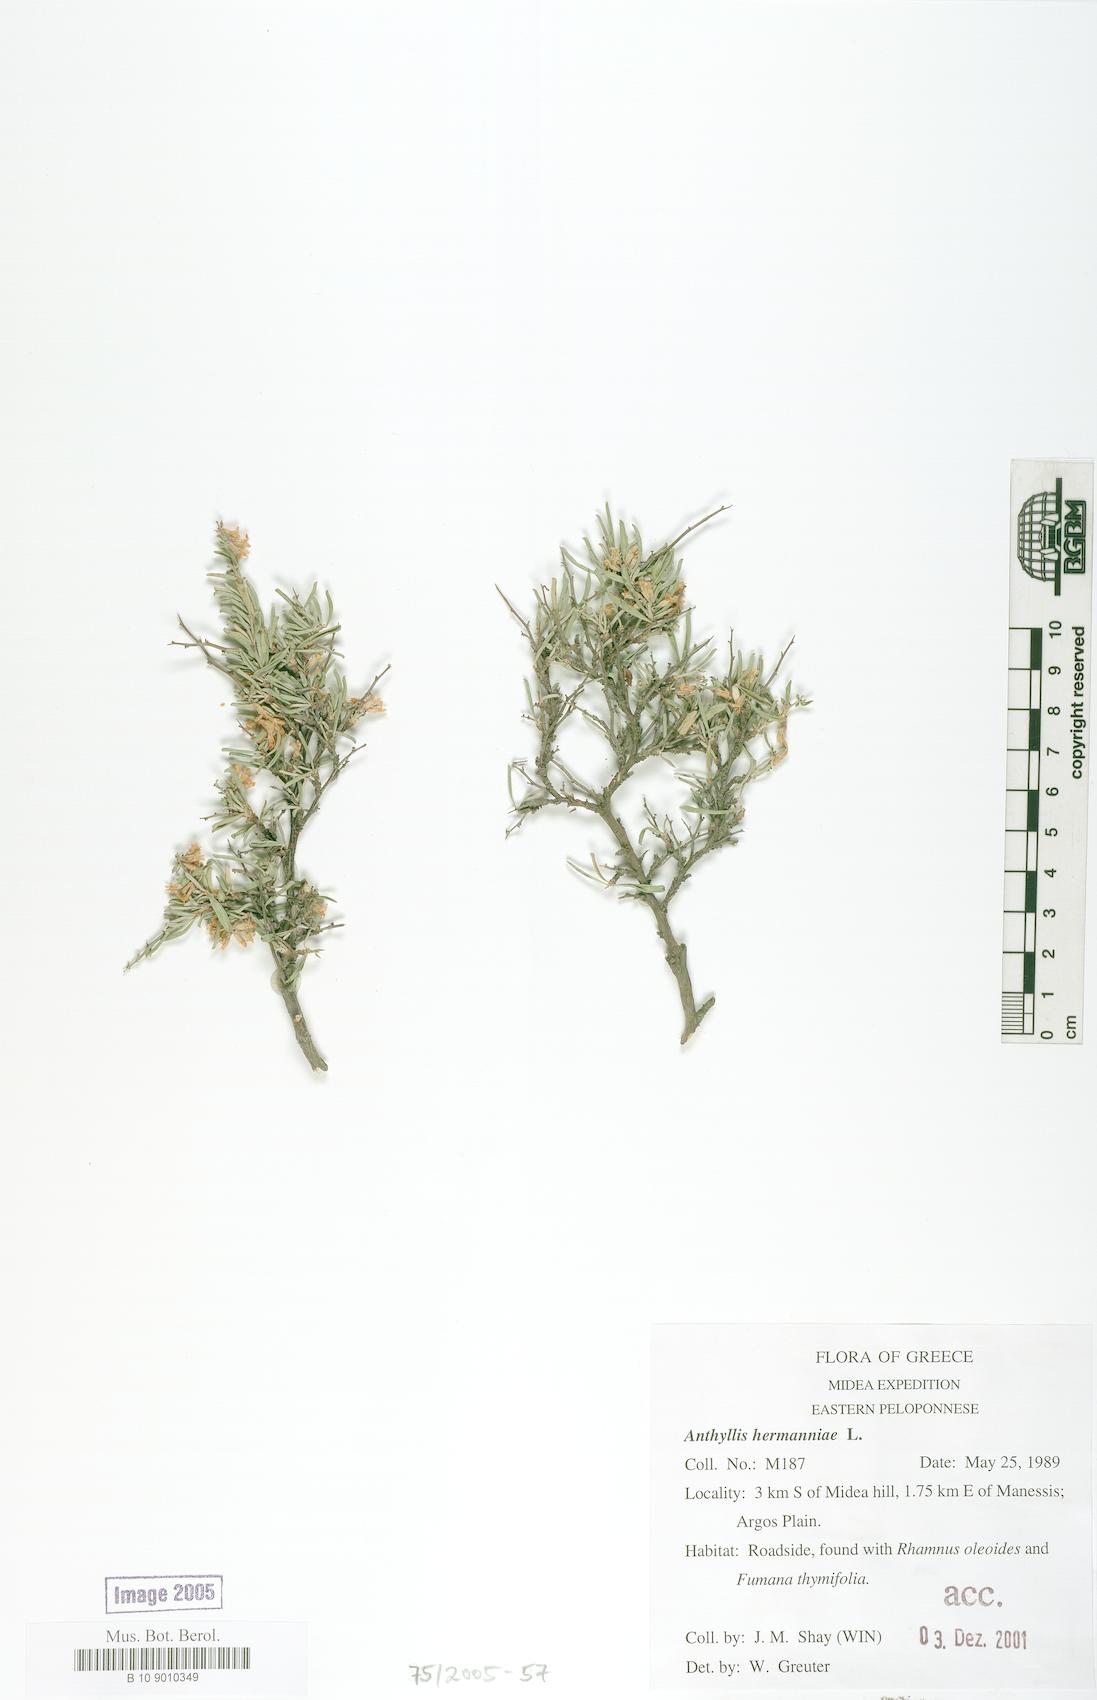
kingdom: Plantae
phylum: Tracheophyta
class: Magnoliopsida
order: Fabales
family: Fabaceae
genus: Anthyllis
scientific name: Anthyllis hermanniae
